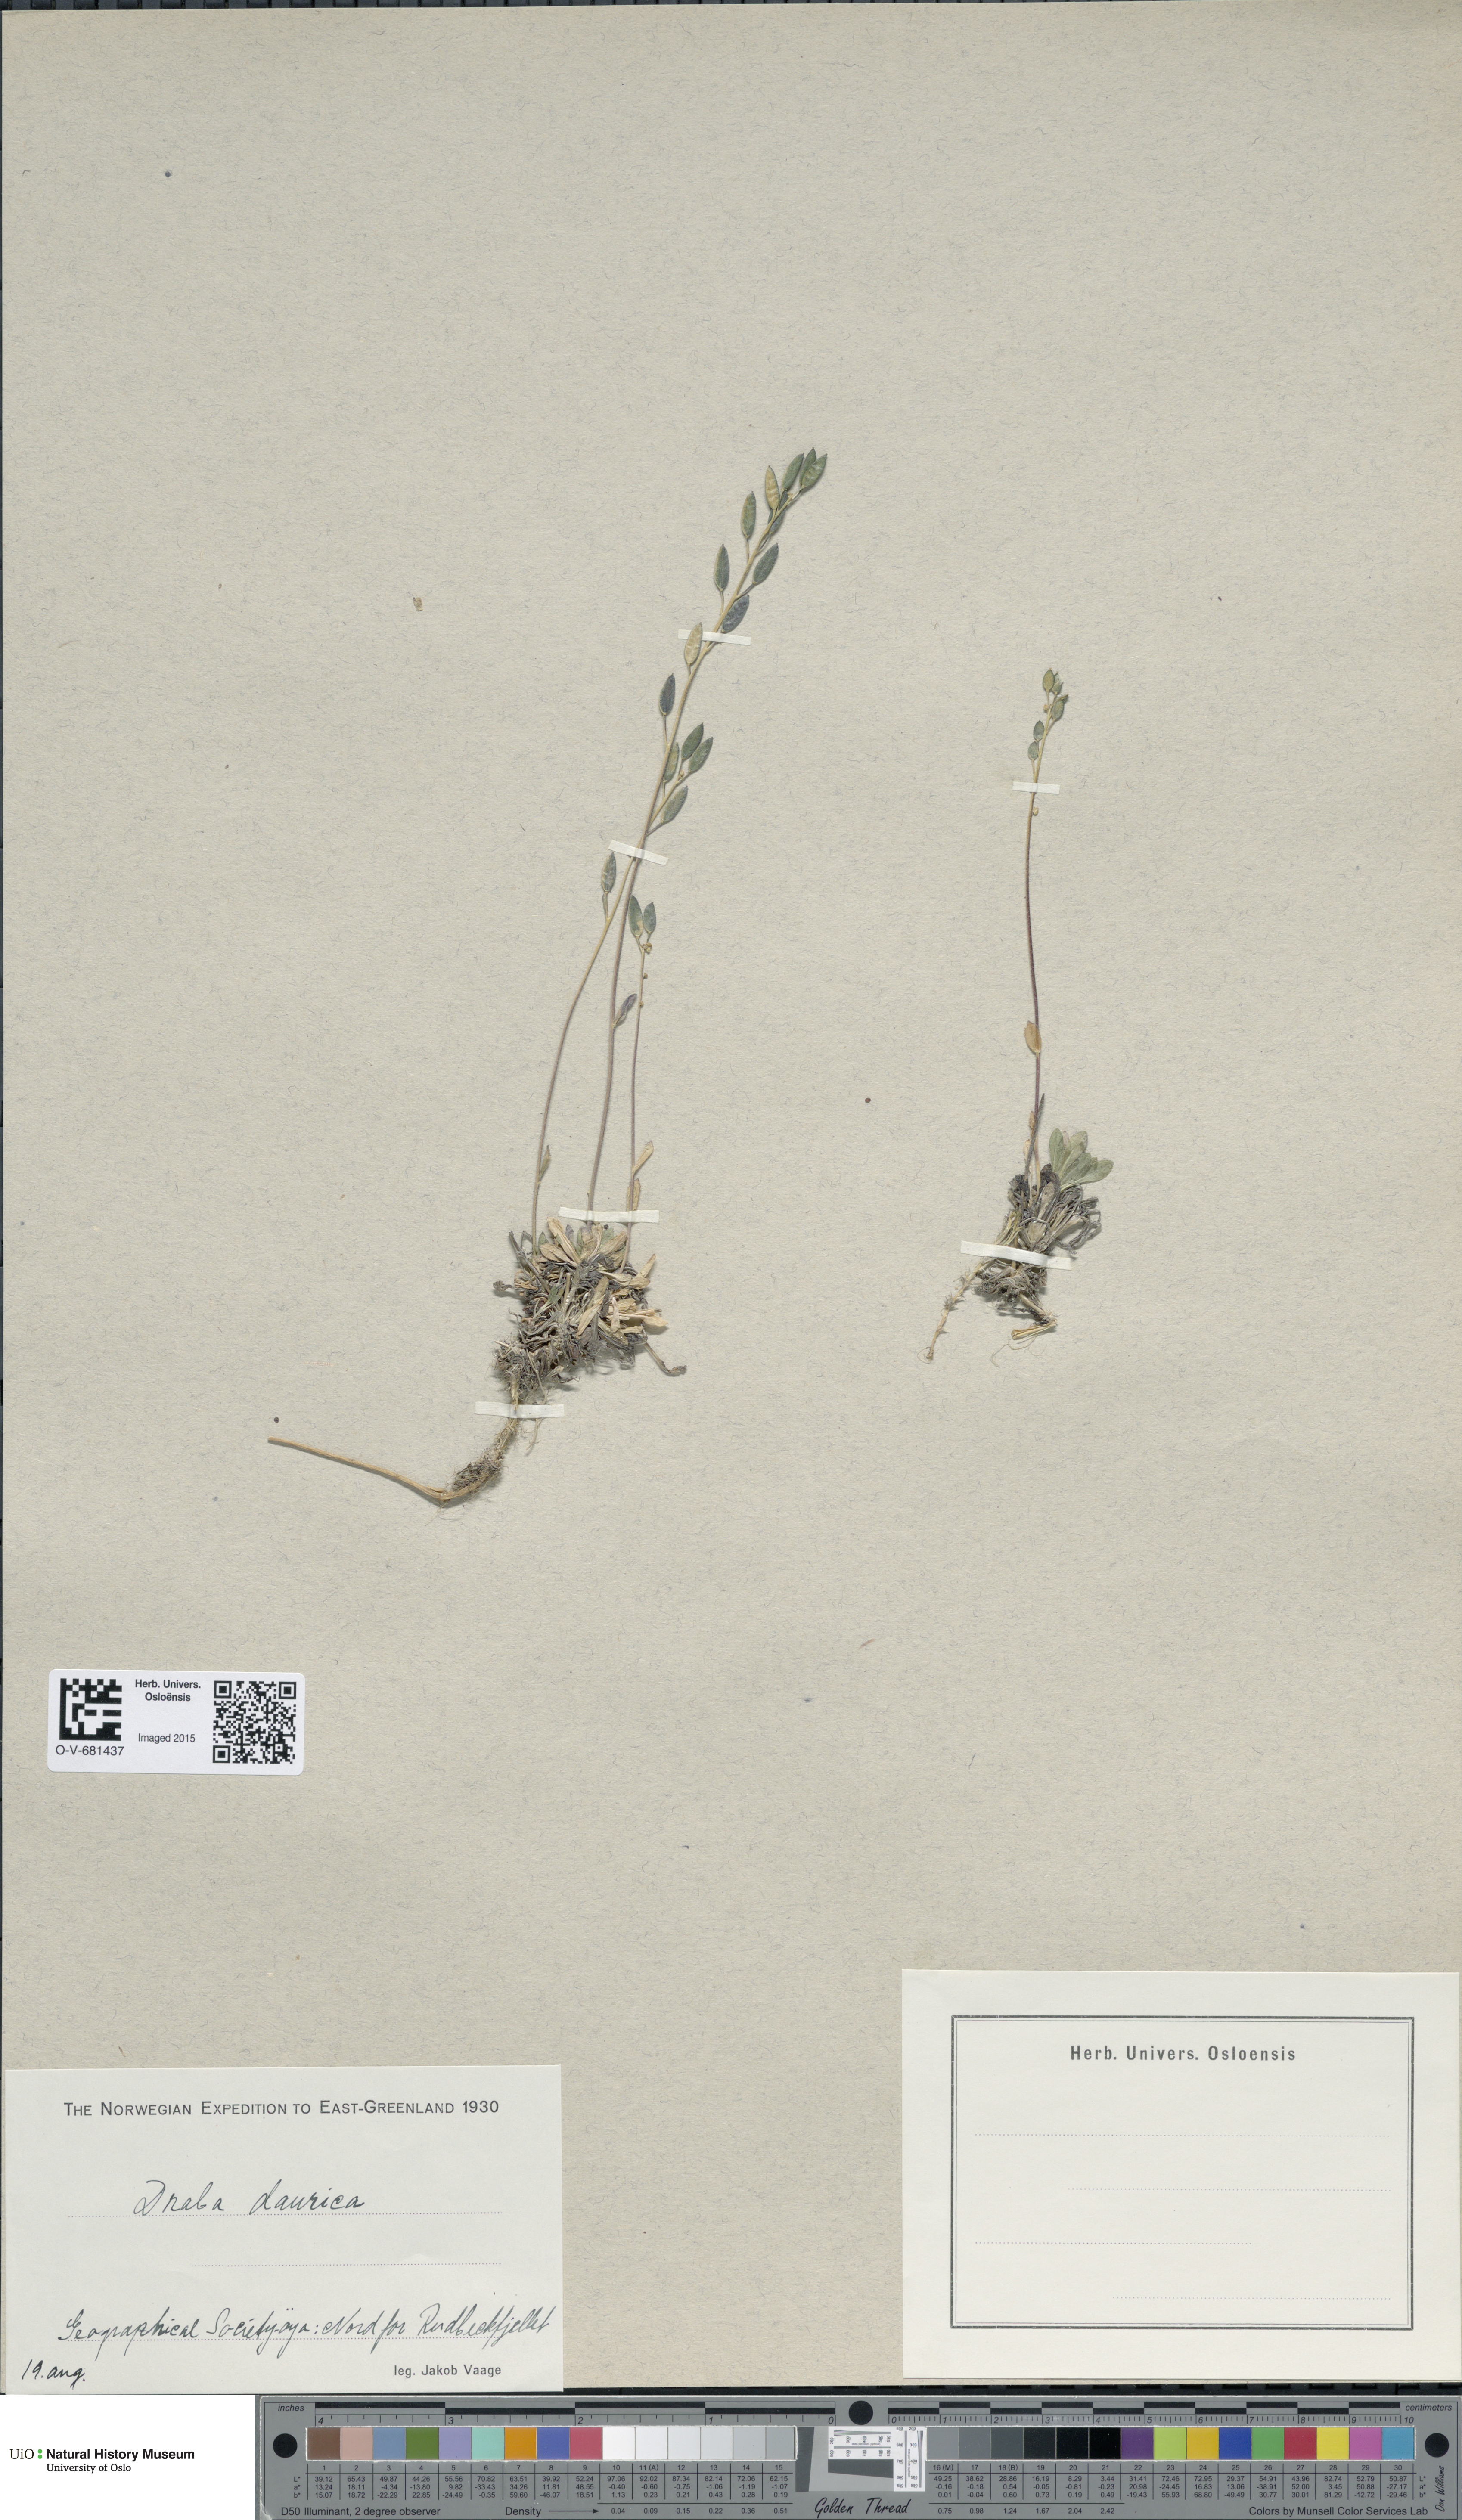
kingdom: Plantae
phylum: Tracheophyta
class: Magnoliopsida
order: Brassicales
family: Brassicaceae
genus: Draba
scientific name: Draba glabella
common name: Glaucous draba
